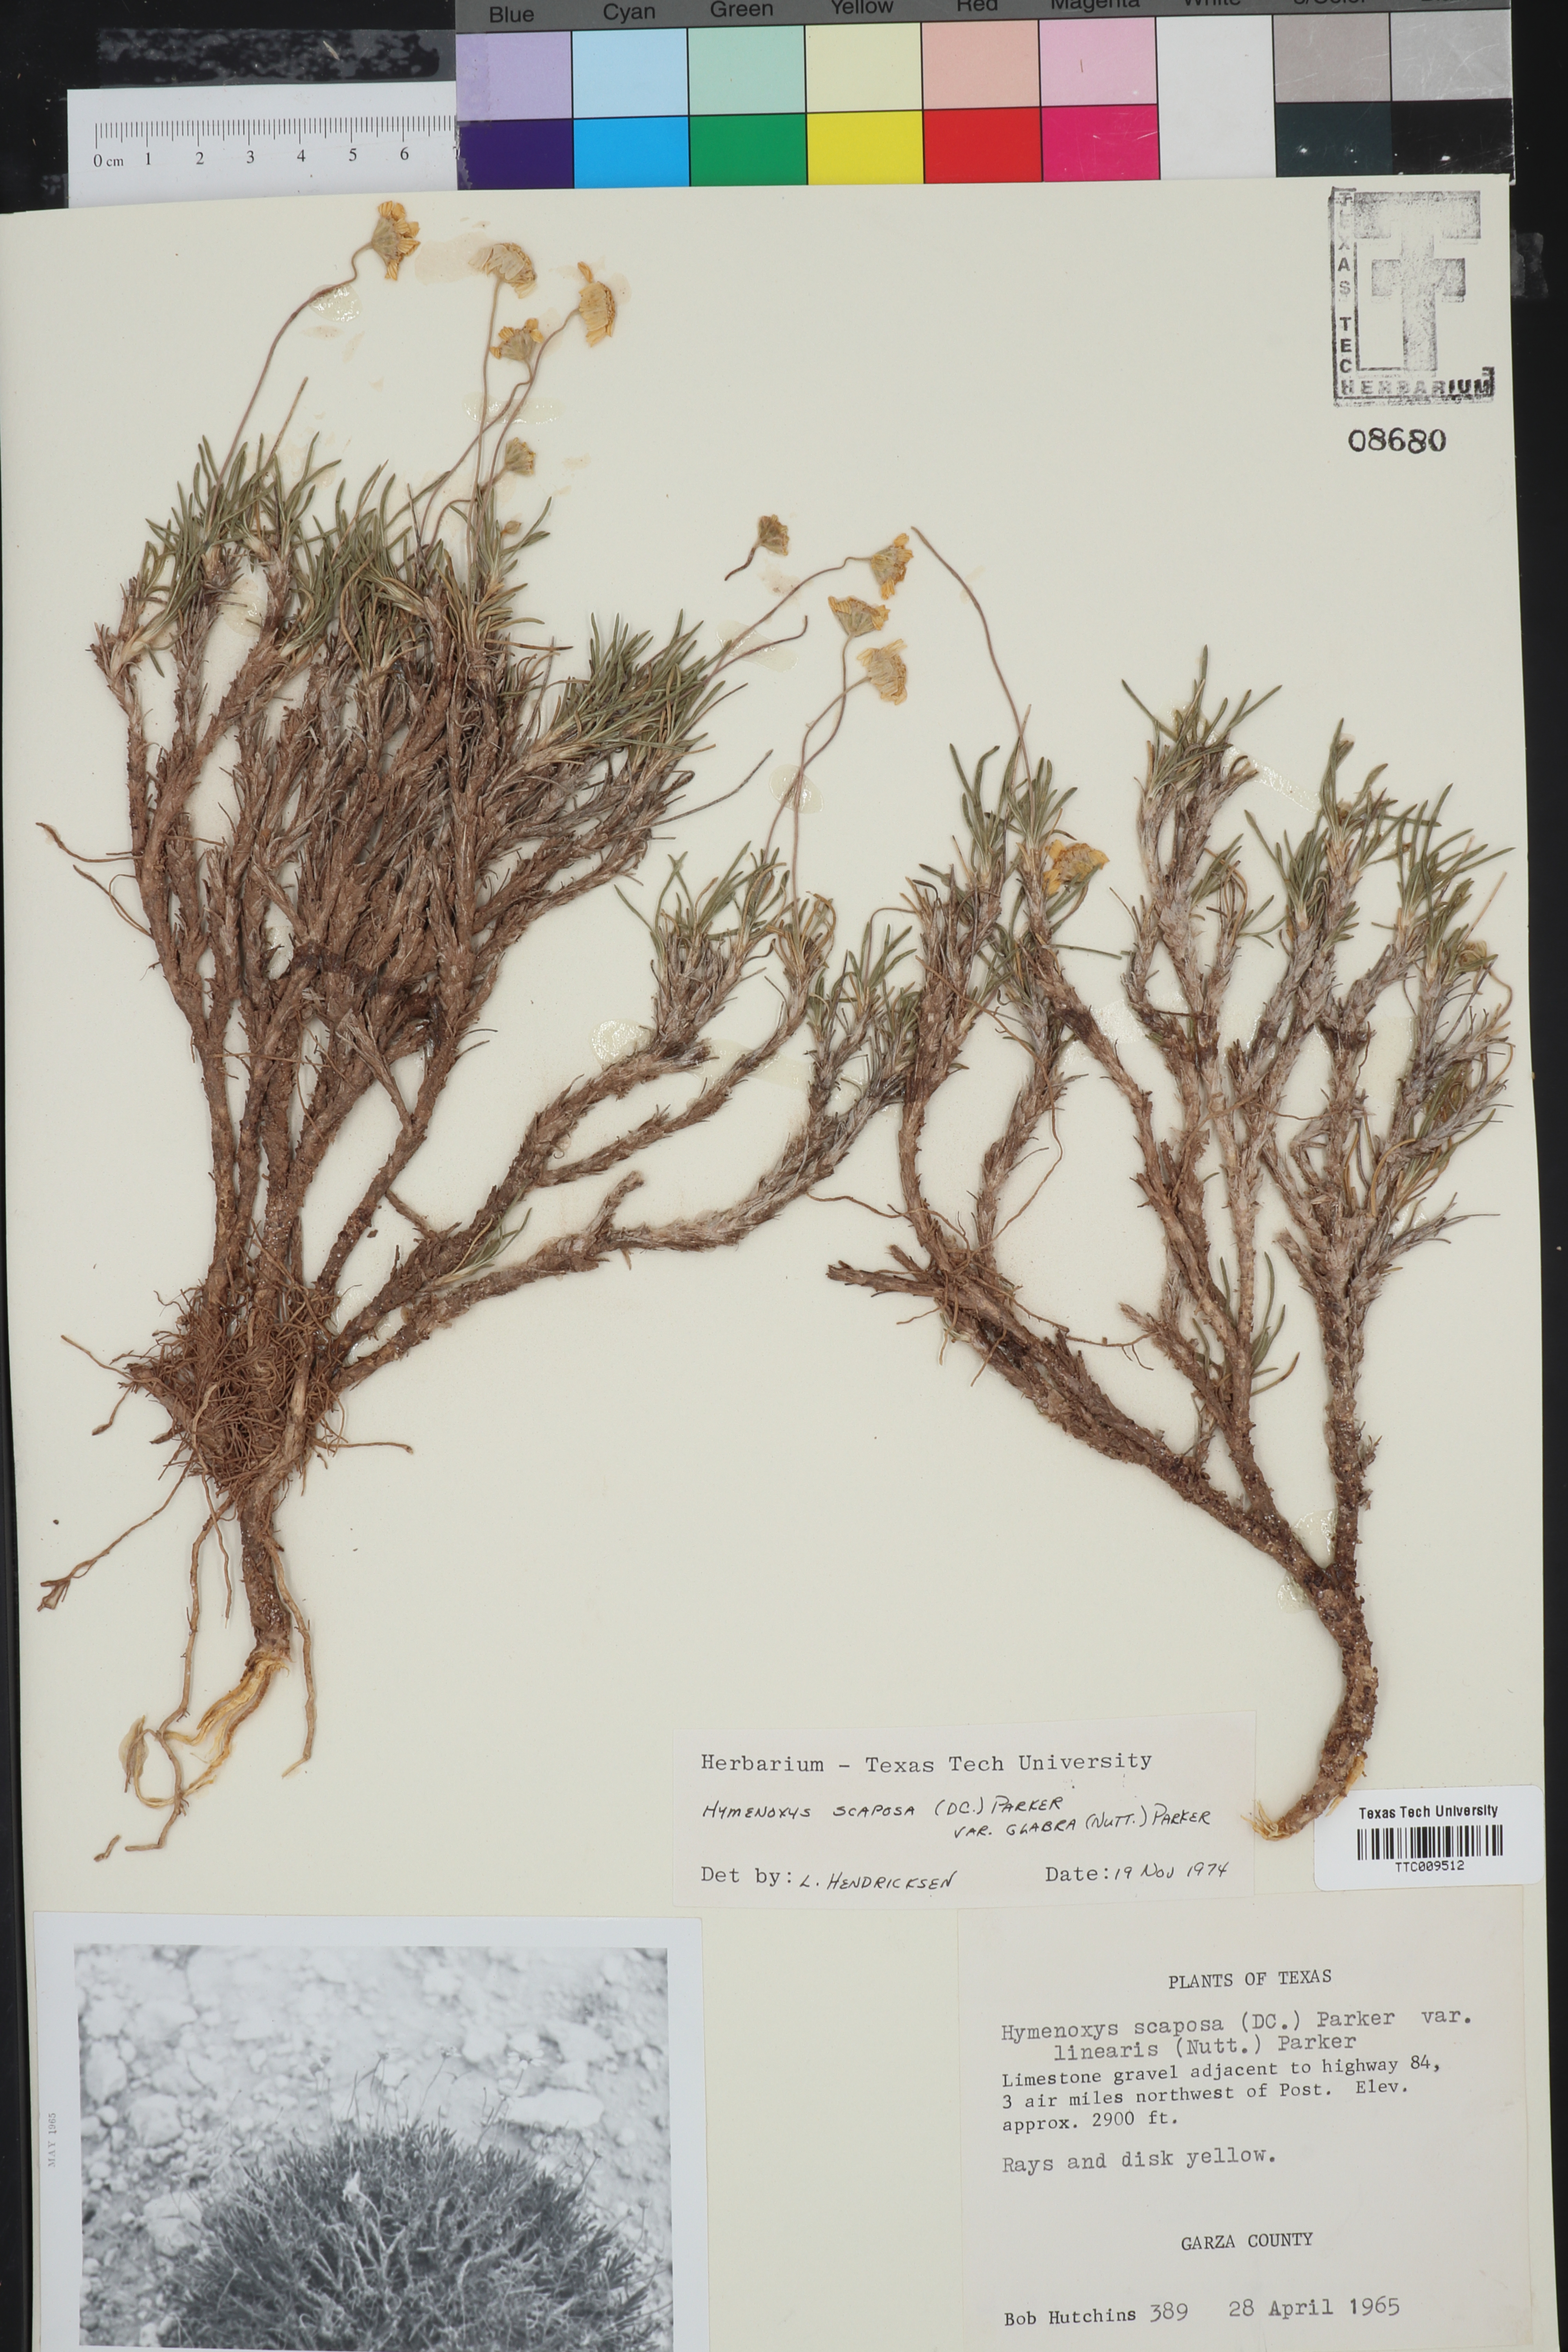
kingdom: Plantae
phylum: Tracheophyta
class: Magnoliopsida
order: Asterales
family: Asteraceae
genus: Tetraneuris
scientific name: Tetraneuris scaposa
